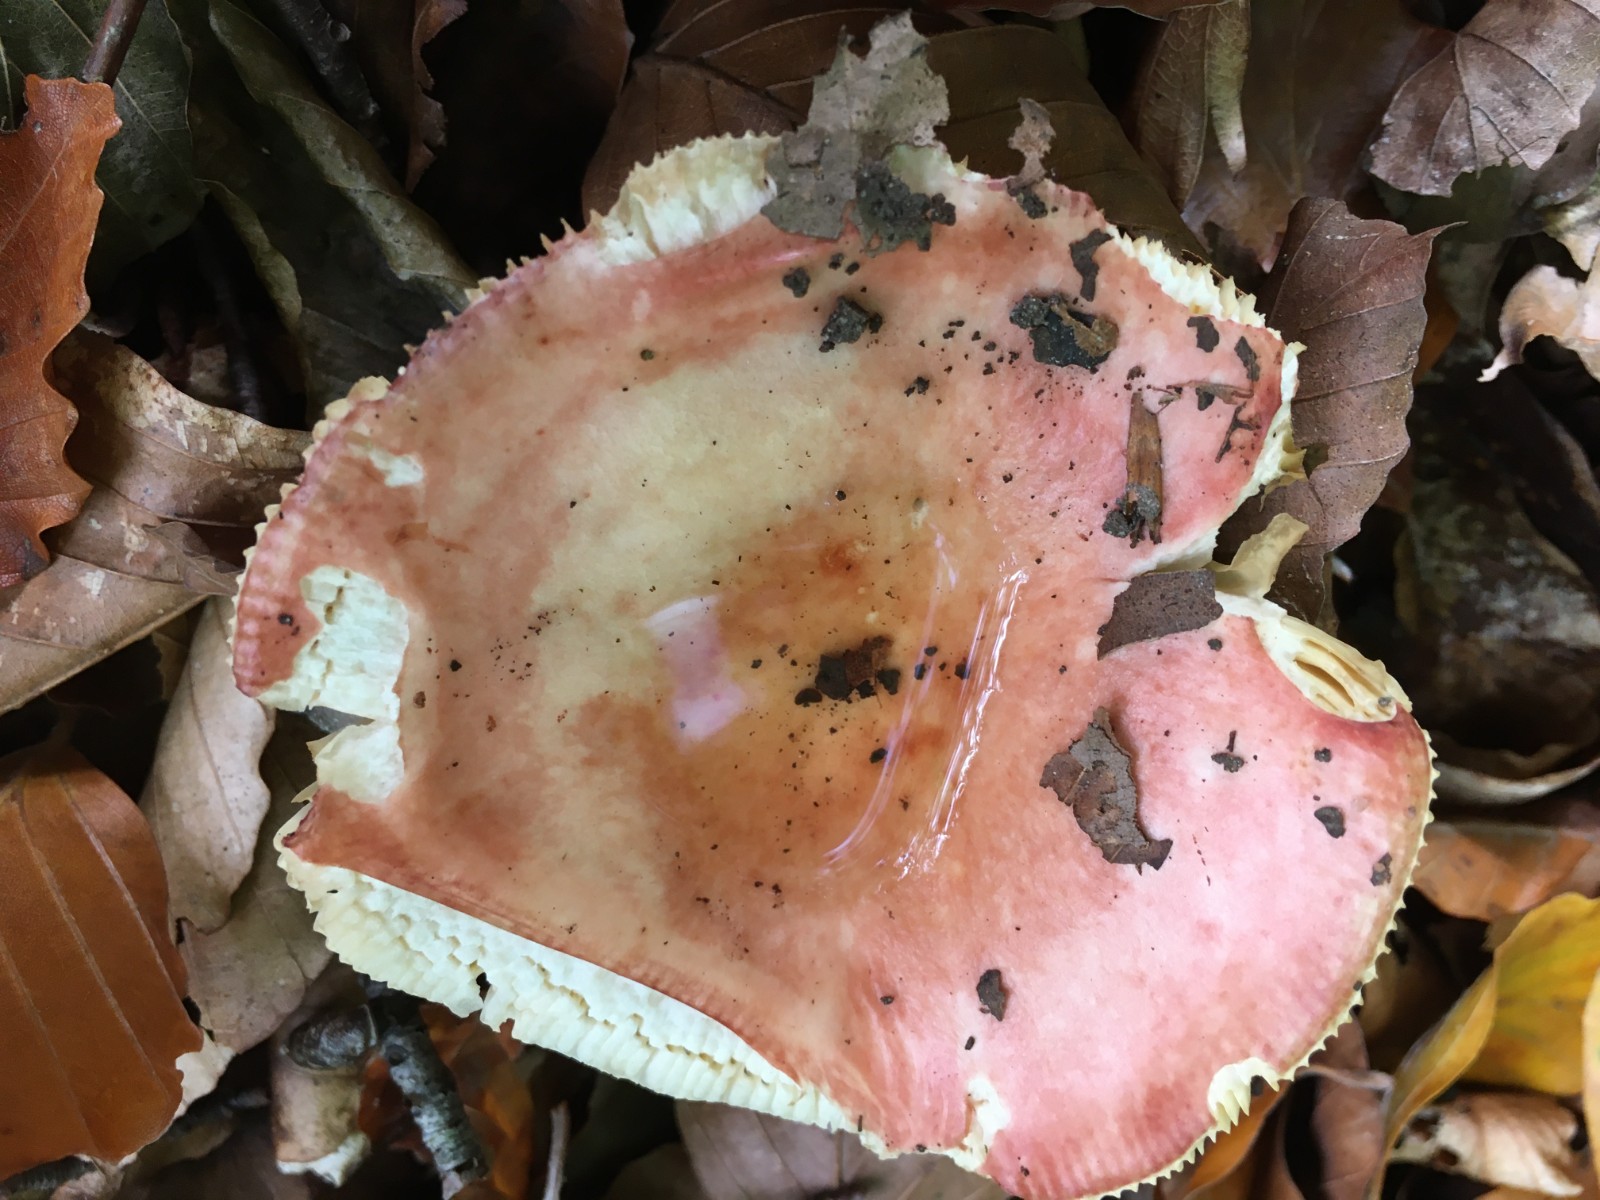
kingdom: Fungi
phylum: Basidiomycota
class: Agaricomycetes
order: Russulales
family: Russulaceae
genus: Russula
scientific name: Russula laeta
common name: orangerosa skørhat
